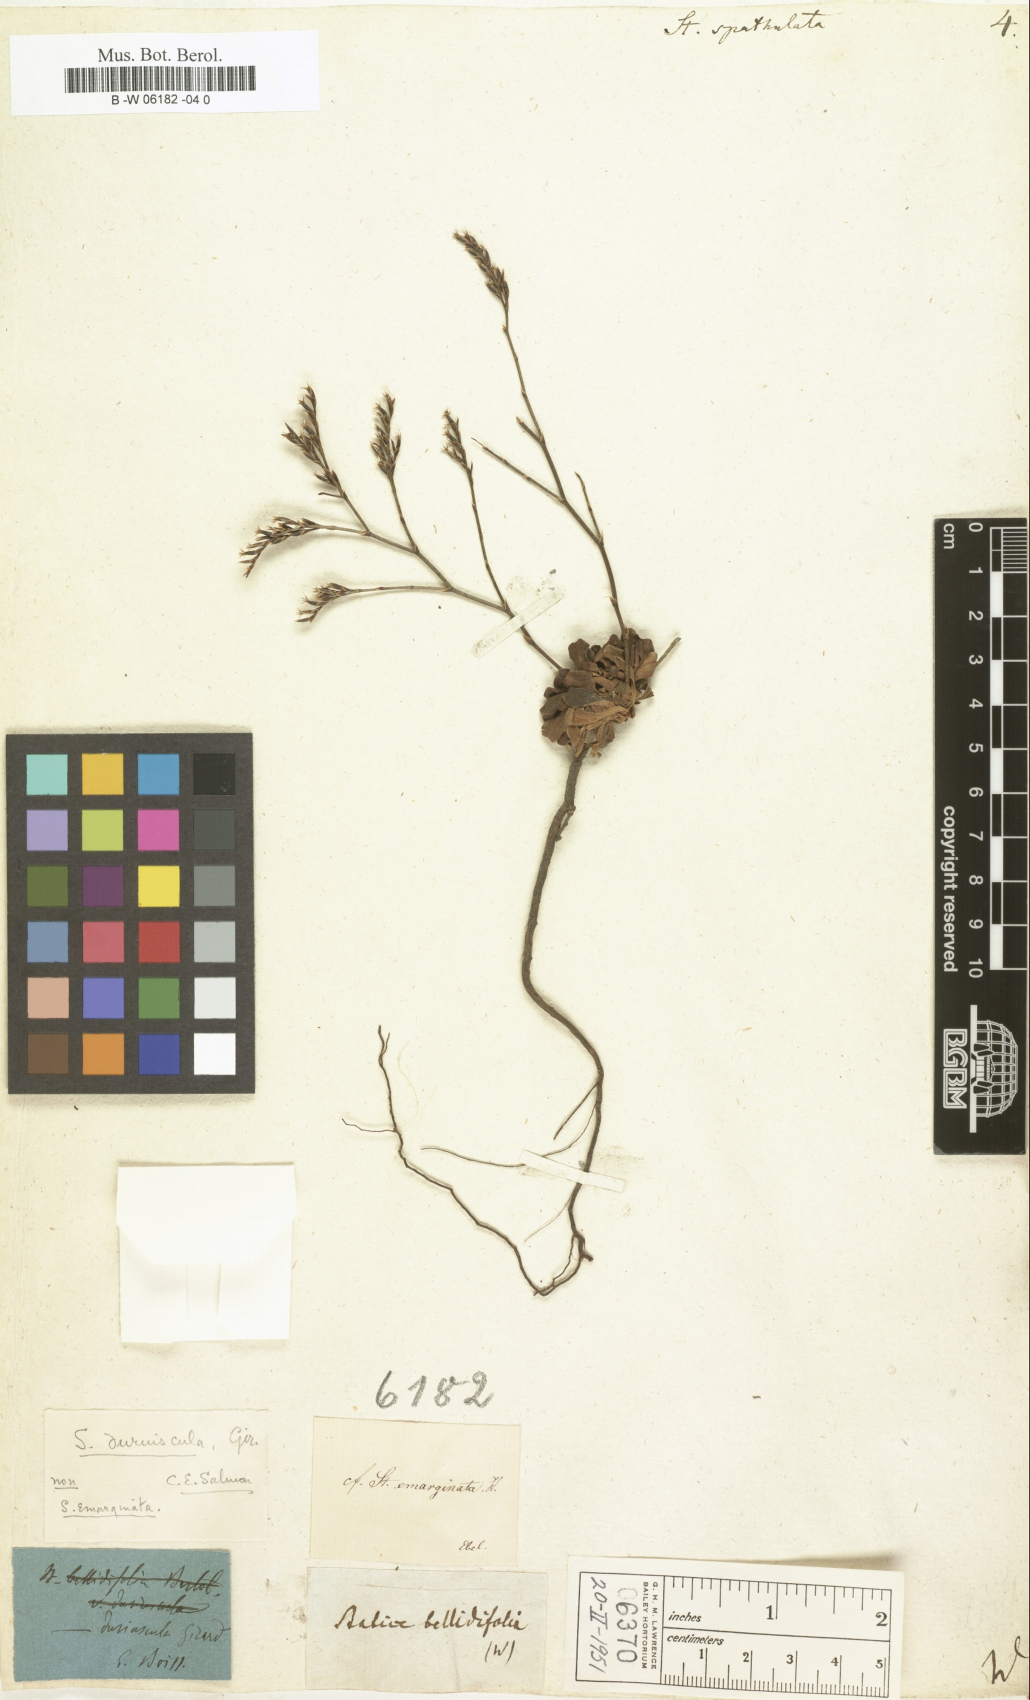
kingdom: Plantae
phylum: Tracheophyta
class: Magnoliopsida
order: Caryophyllales
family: Plumbaginaceae
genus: Limonium
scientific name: Limonium
